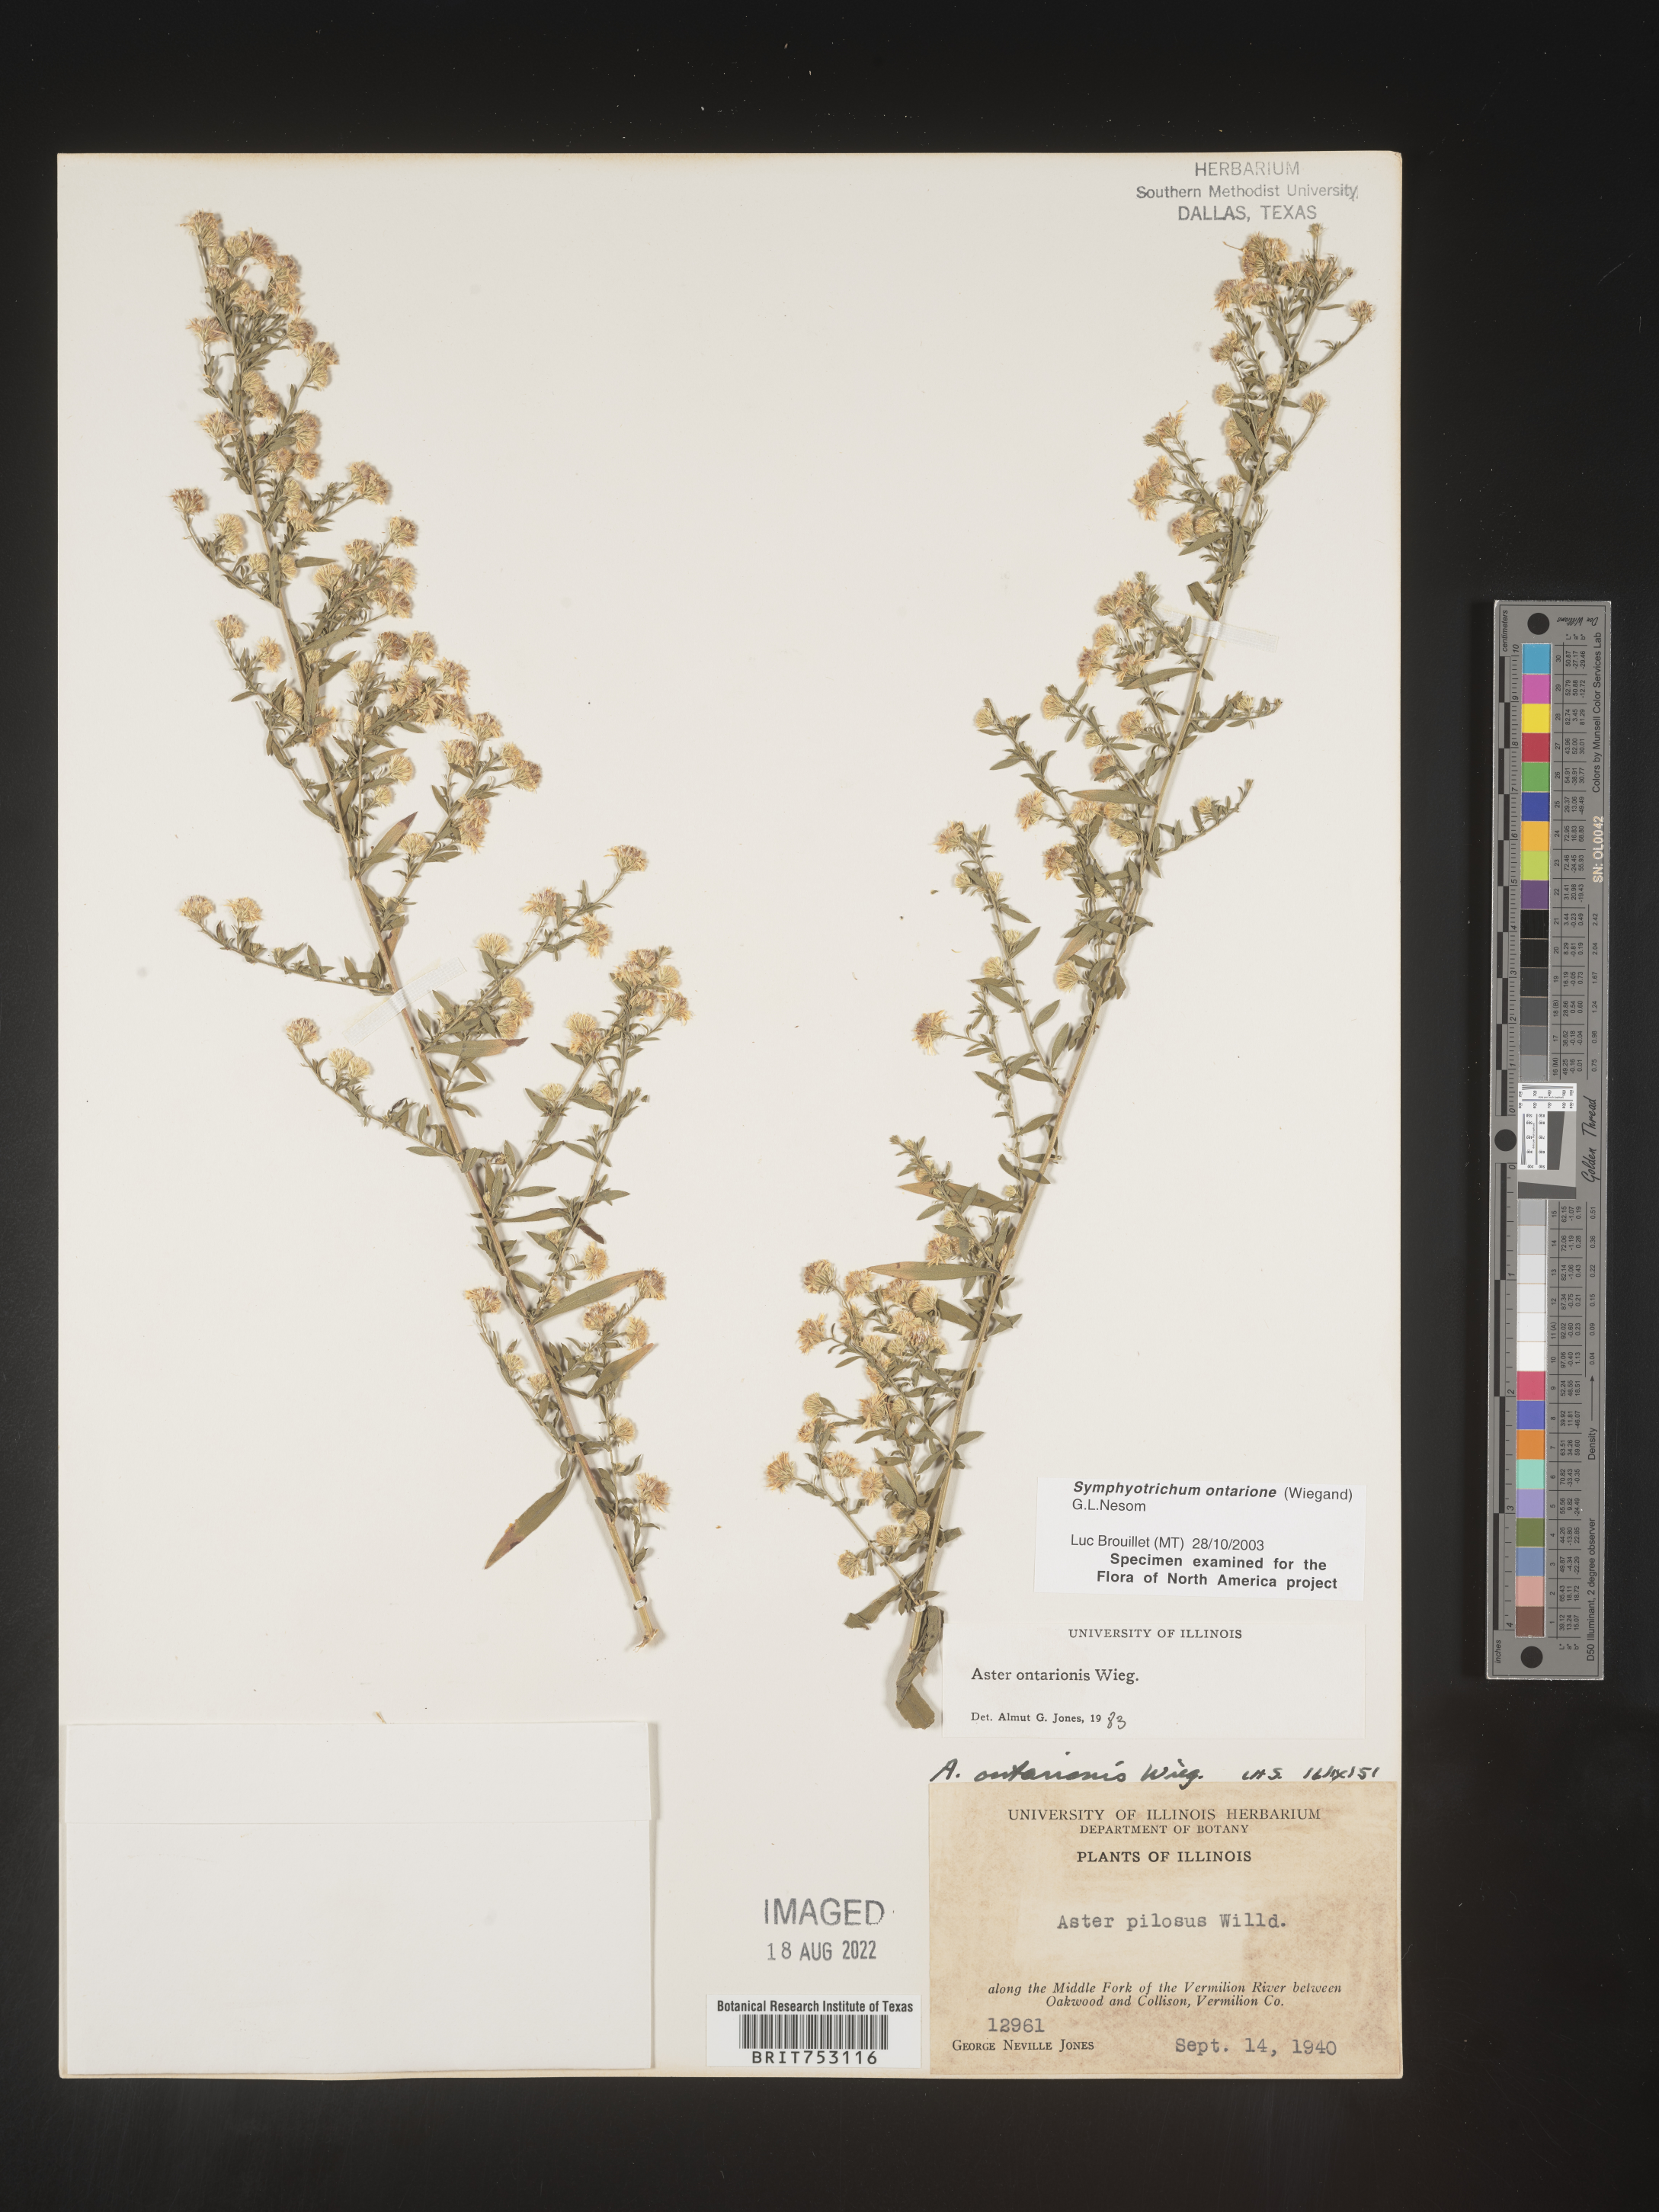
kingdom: Plantae
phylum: Tracheophyta
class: Magnoliopsida
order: Asterales
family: Asteraceae
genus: Symphyotrichum
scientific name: Symphyotrichum ontarionis
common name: Bottomland aster
